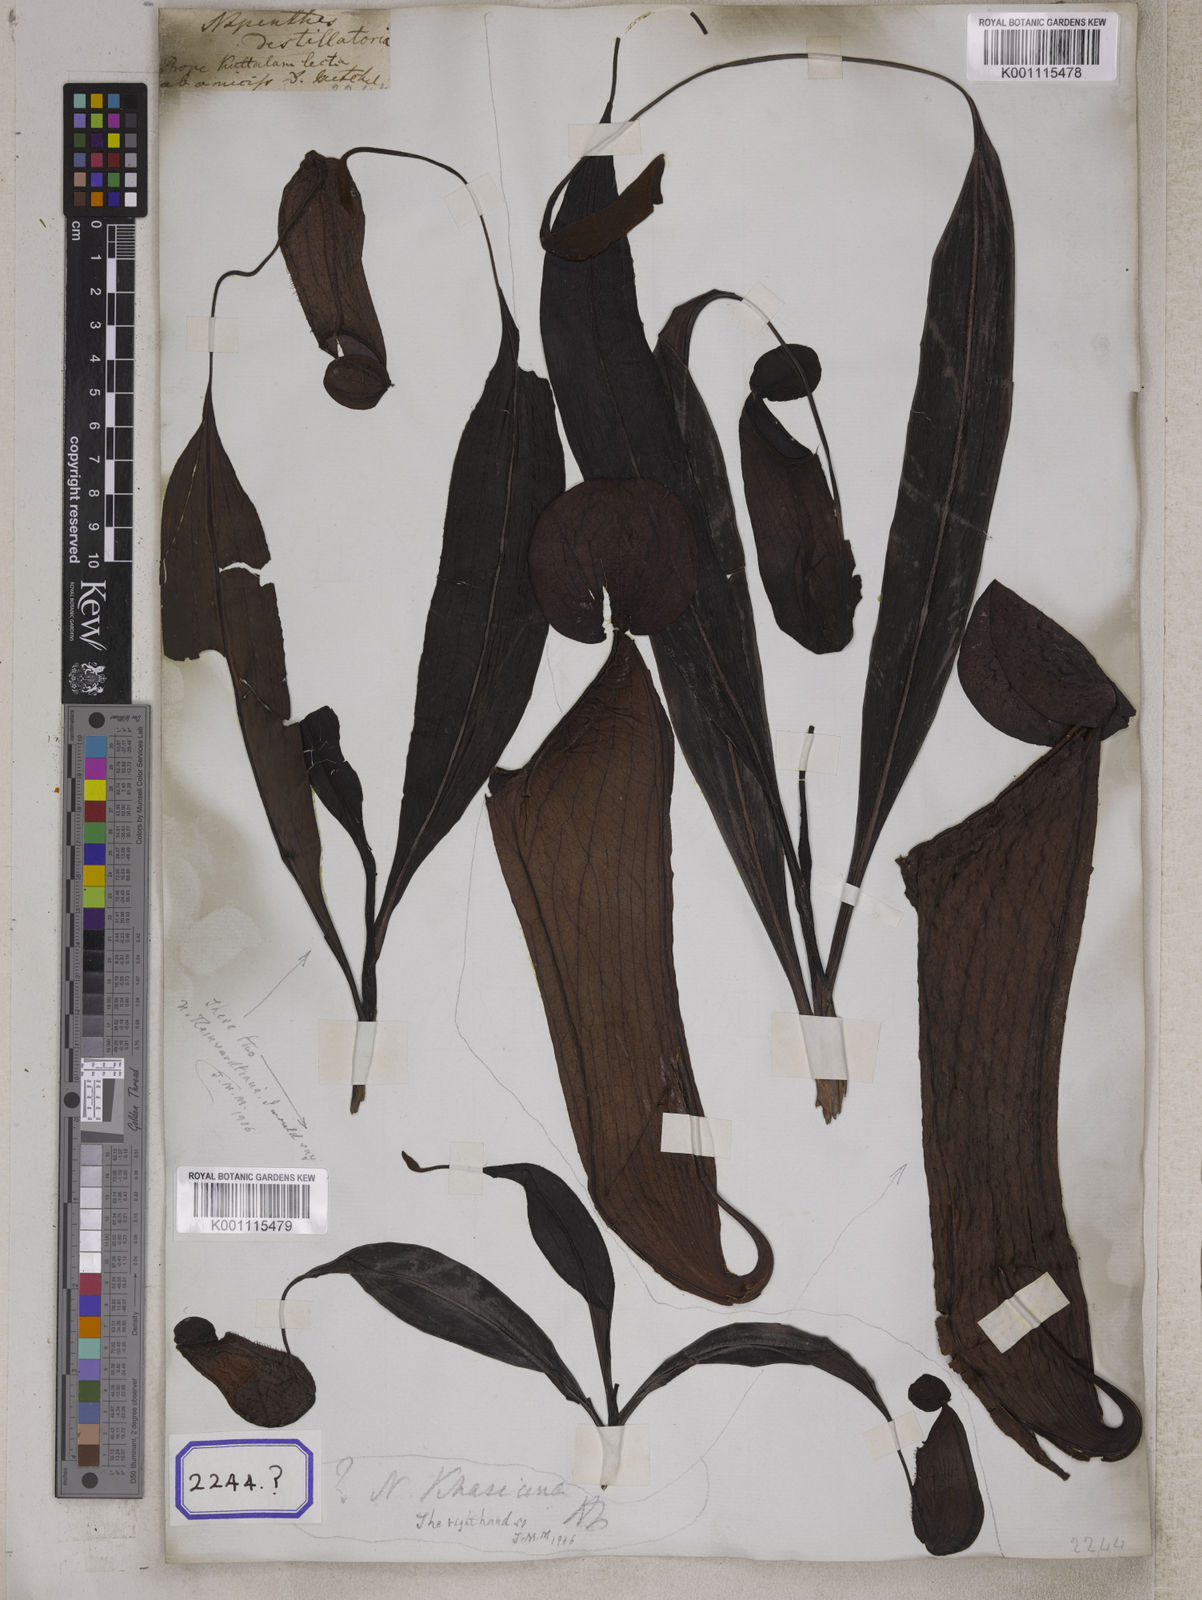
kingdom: Plantae
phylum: Tracheophyta
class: Magnoliopsida
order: Caryophyllales
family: Nepenthaceae
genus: Nepenthes
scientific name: Nepenthes distillatoria
